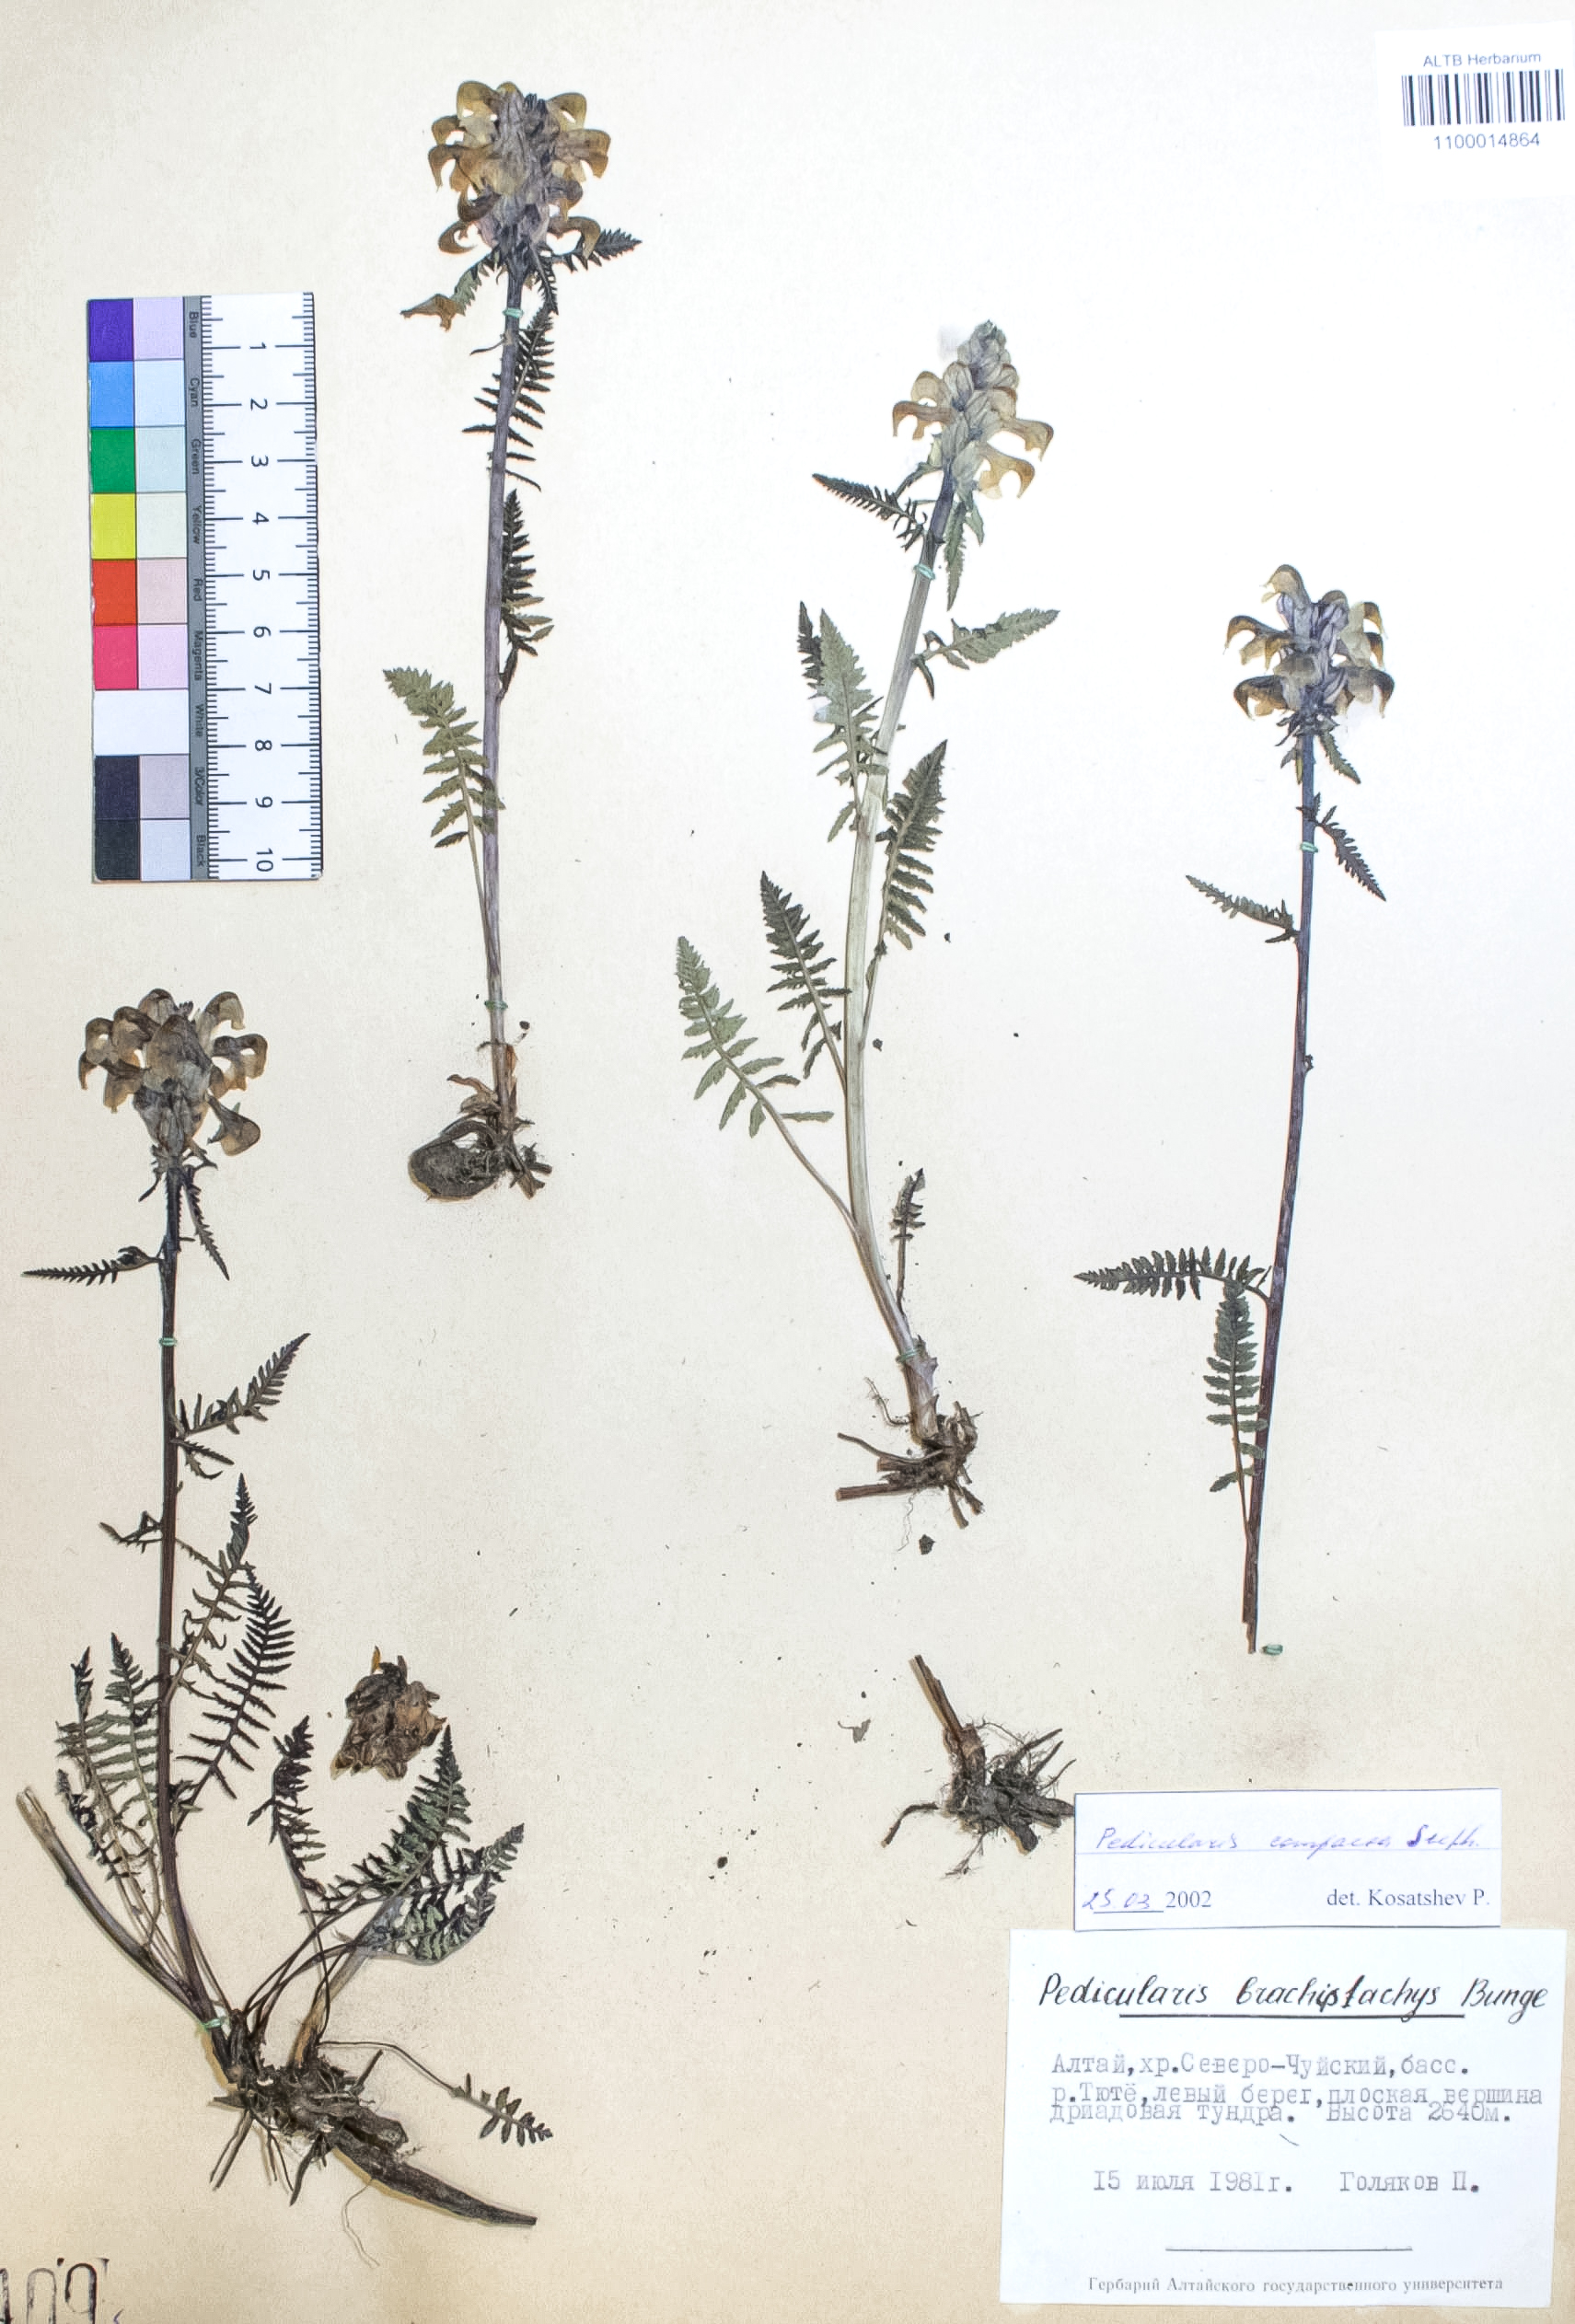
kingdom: Plantae
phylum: Tracheophyta
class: Magnoliopsida
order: Lamiales
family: Orobanchaceae
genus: Pedicularis
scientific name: Pedicularis compacta
